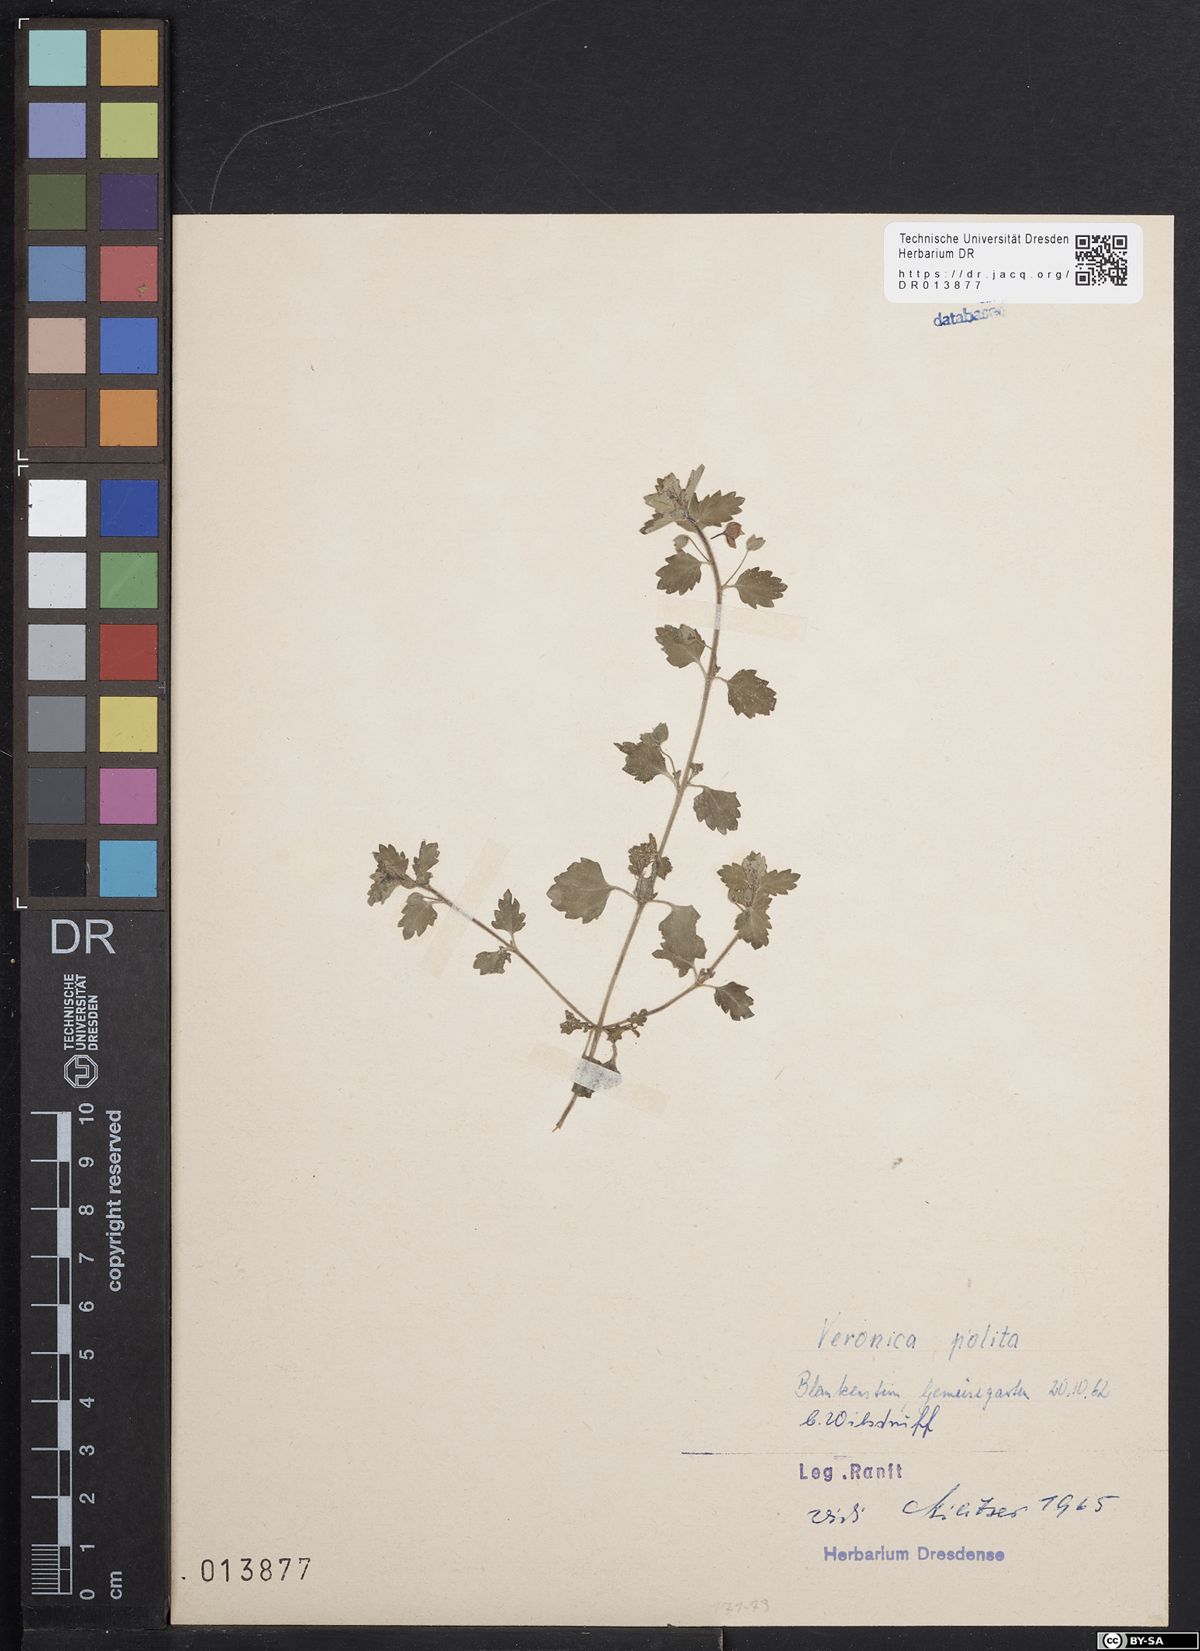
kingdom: Plantae
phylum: Tracheophyta
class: Magnoliopsida
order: Lamiales
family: Plantaginaceae
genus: Veronica
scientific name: Veronica polita
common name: Grey field-speedwell
